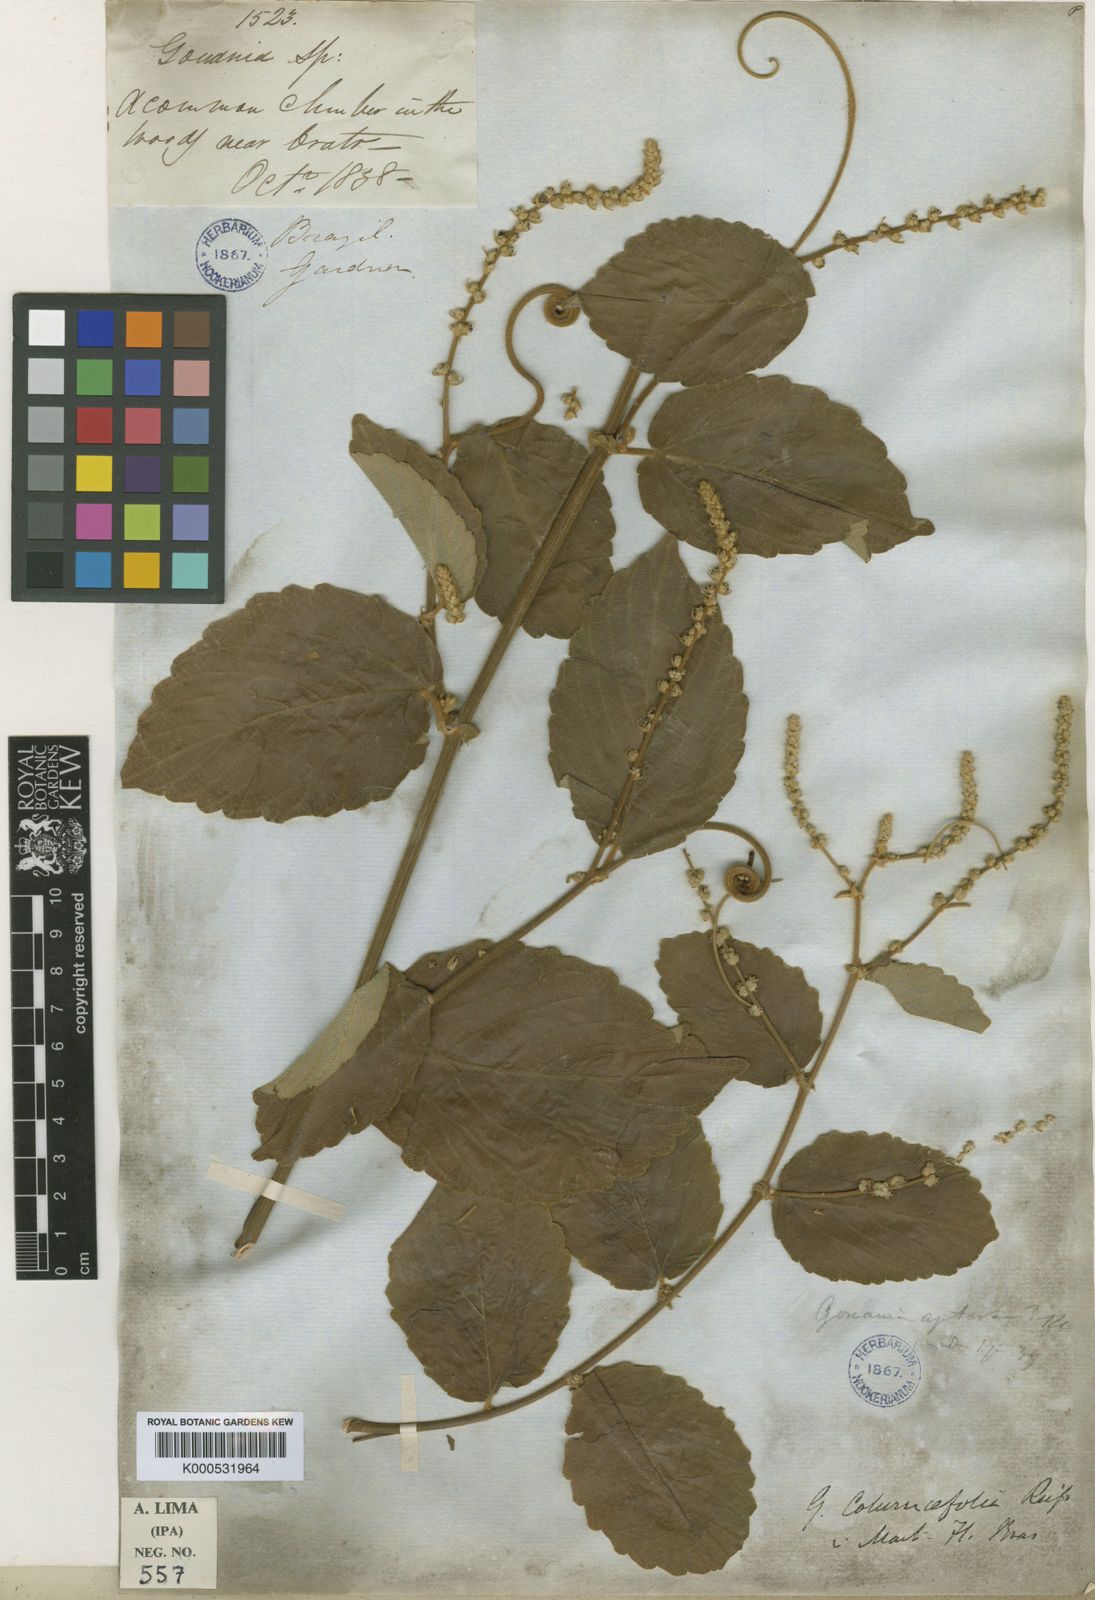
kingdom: Plantae
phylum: Tracheophyta
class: Magnoliopsida
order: Rosales
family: Rhamnaceae
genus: Gouania
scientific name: Gouania velutina
